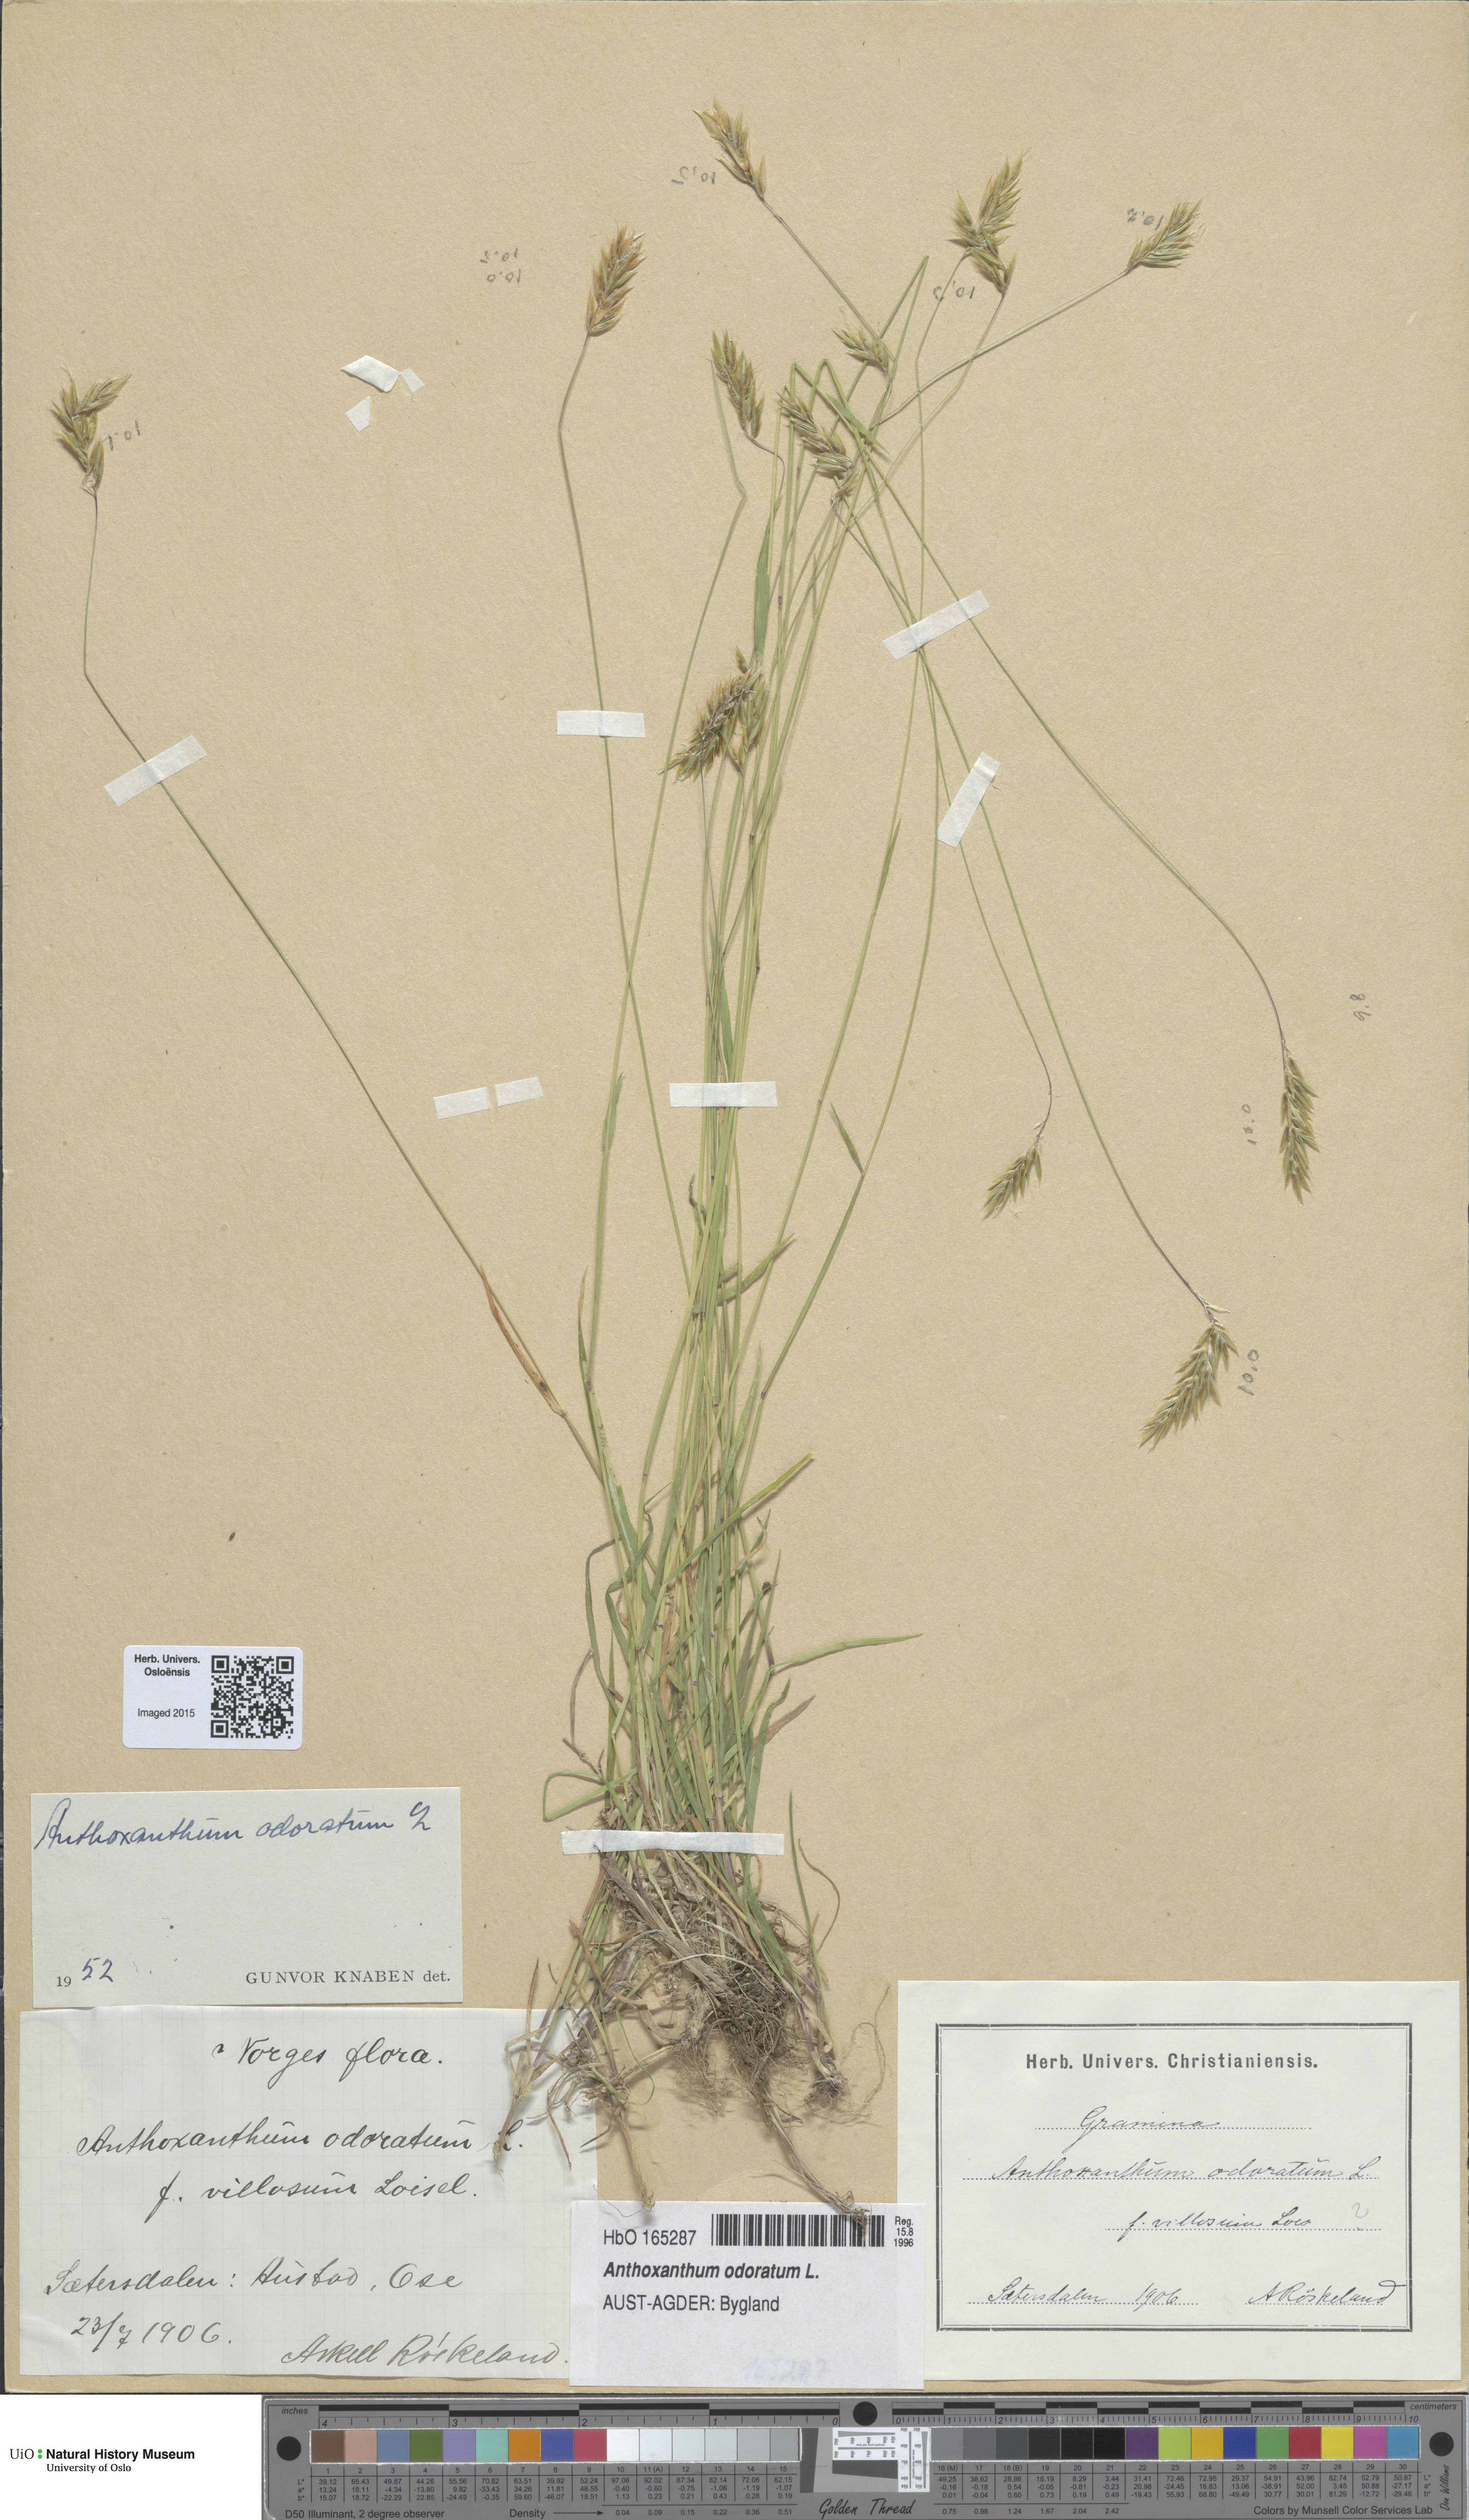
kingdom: Plantae
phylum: Tracheophyta
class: Liliopsida
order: Poales
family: Poaceae
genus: Anthoxanthum
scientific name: Anthoxanthum odoratum
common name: Sweet vernalgrass
